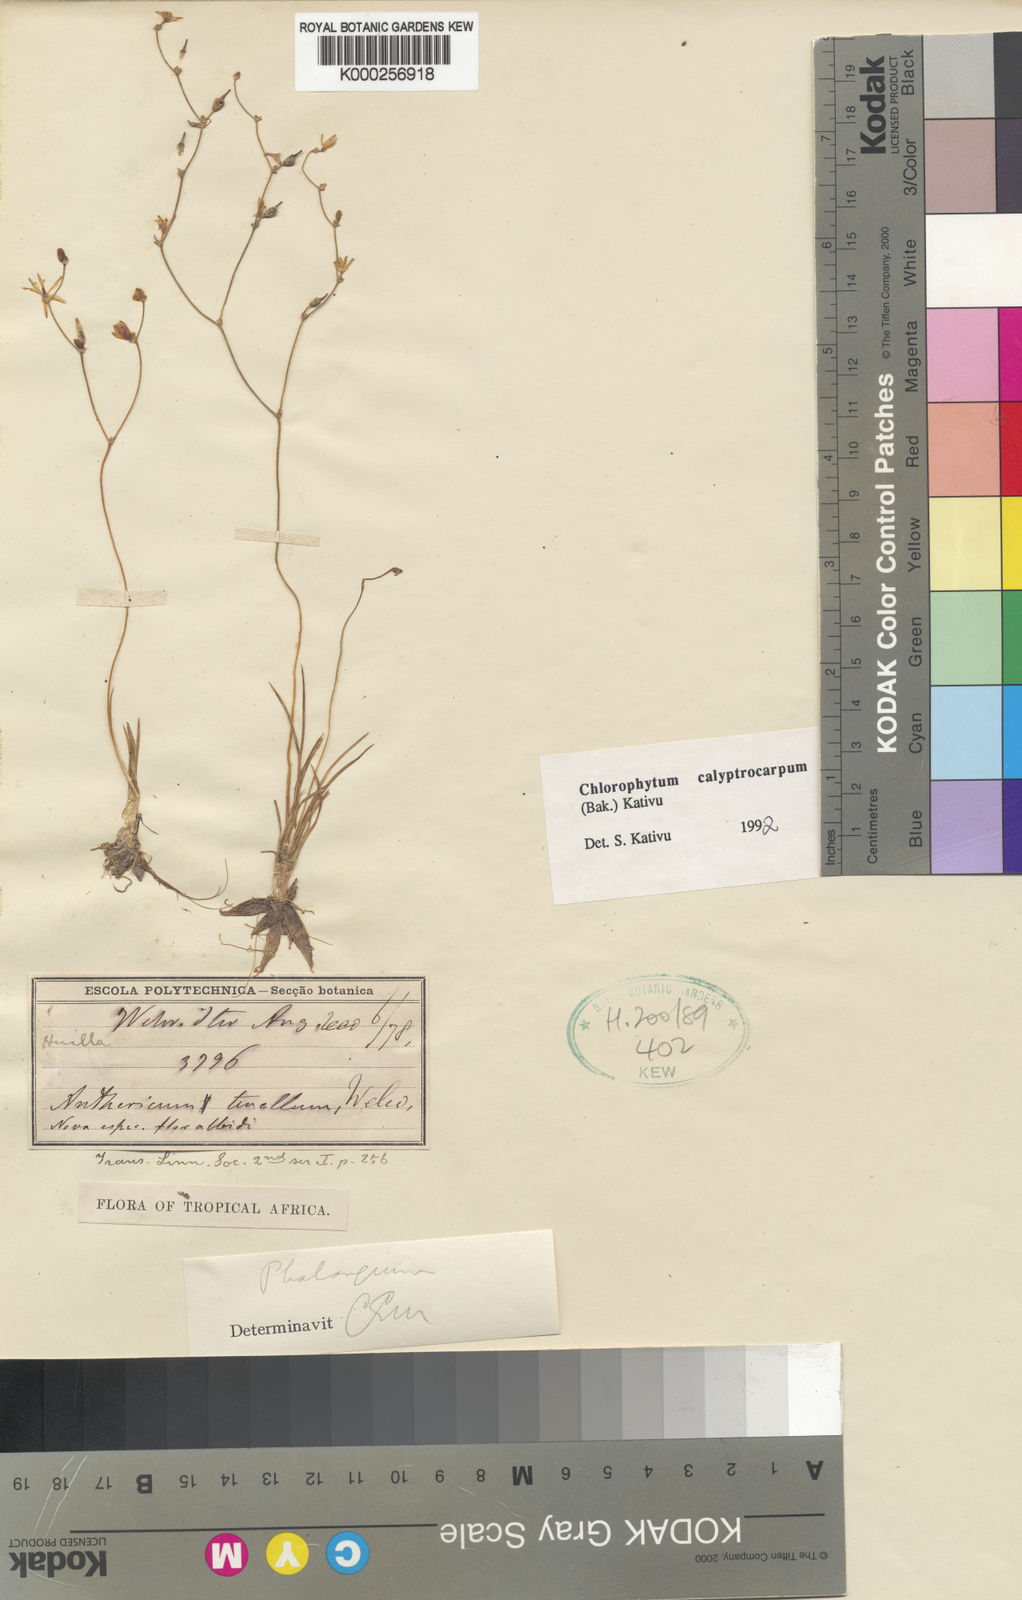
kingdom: Plantae
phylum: Tracheophyta
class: Liliopsida
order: Asparagales
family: Asparagaceae
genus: Chlorophytum
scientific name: Chlorophytum calyptrocarpum
